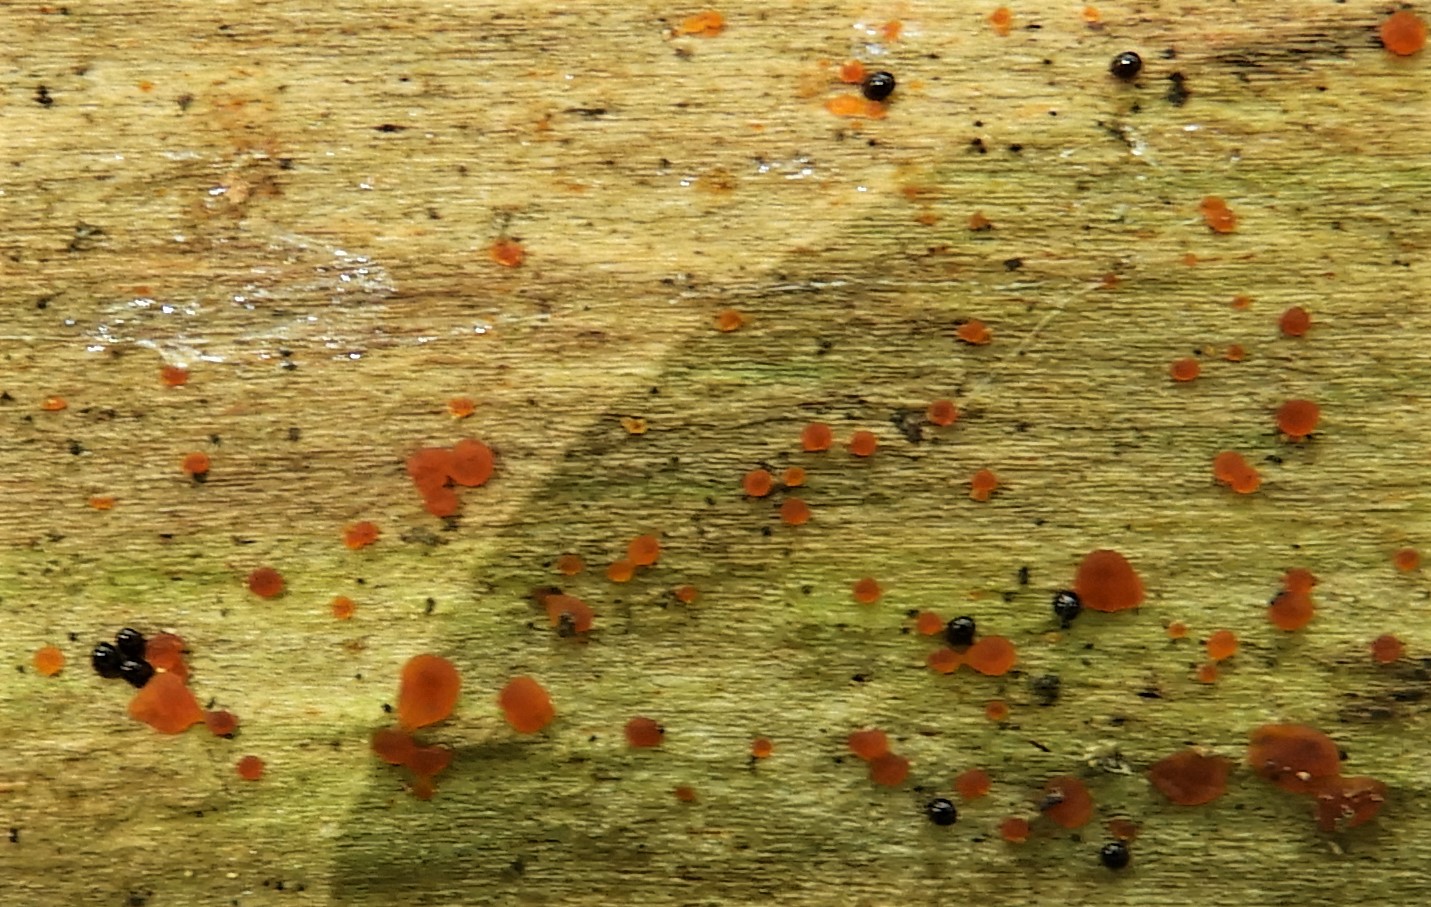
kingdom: Fungi
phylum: Ascomycota
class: Orbiliomycetes
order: Orbiliales
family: Orbiliaceae
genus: Orbilia
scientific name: Orbilia
